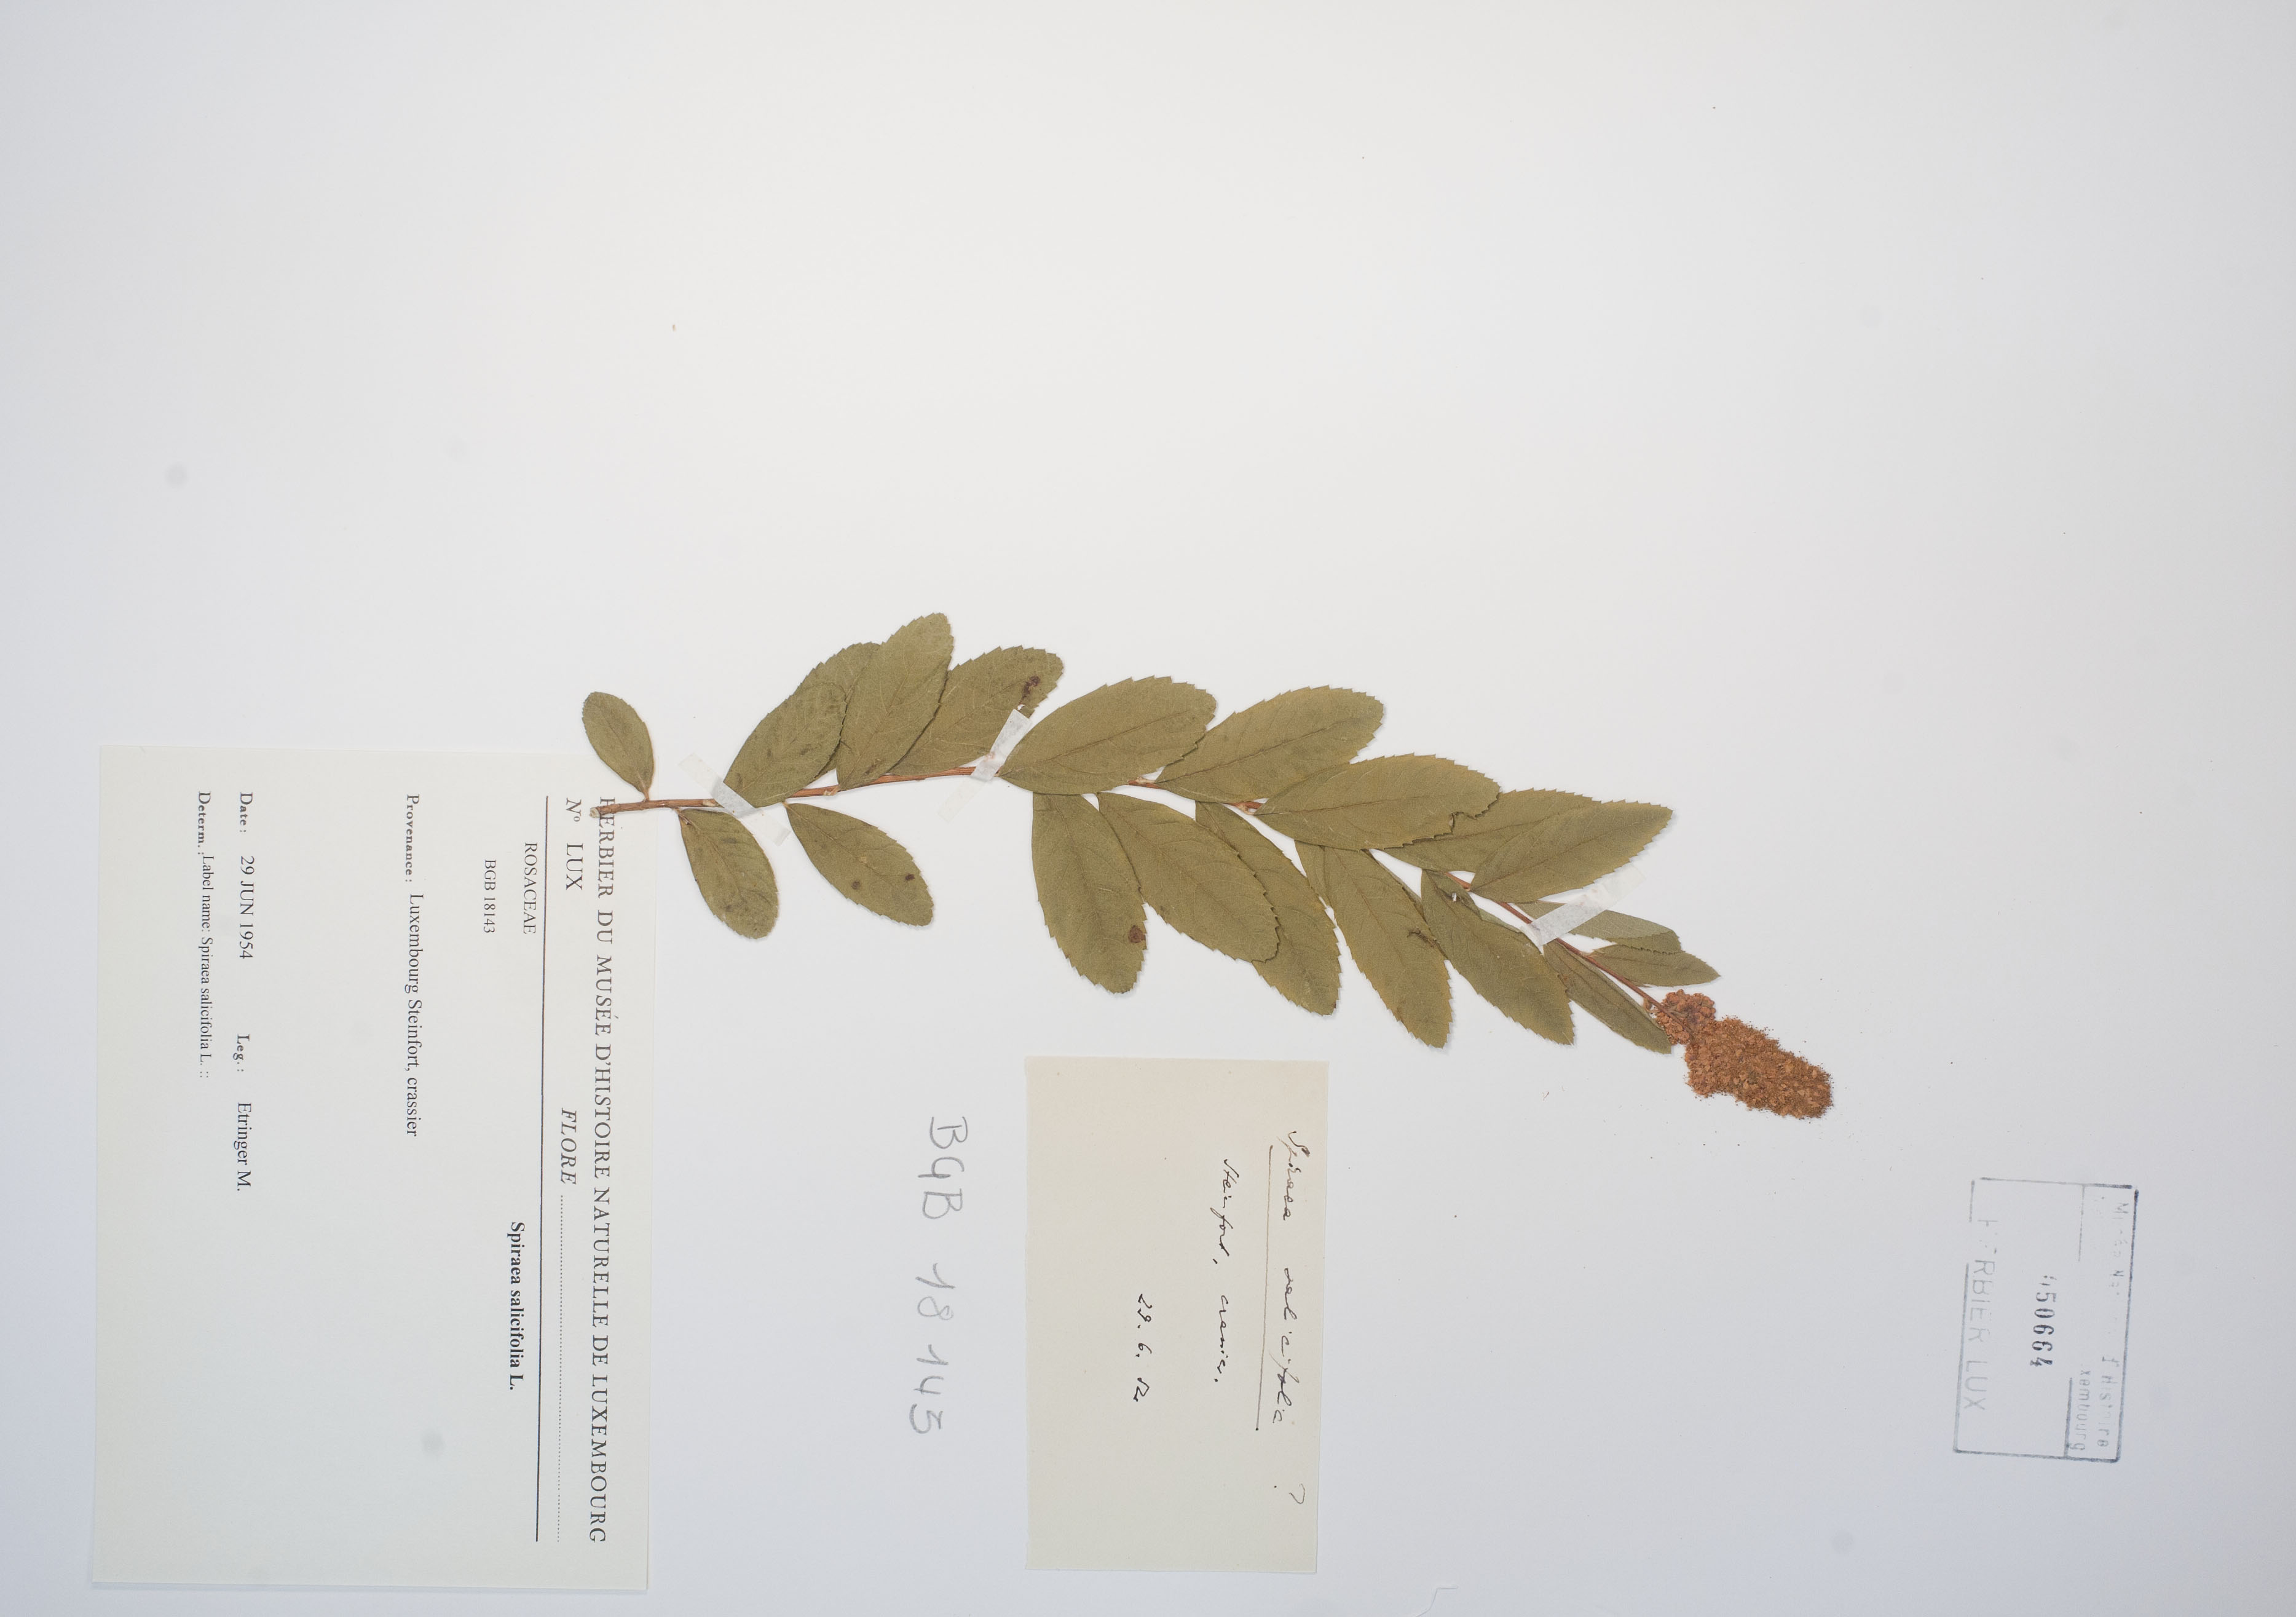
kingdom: Plantae
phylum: Tracheophyta
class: Magnoliopsida
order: Rosales
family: Rosaceae
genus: Spiraea
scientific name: Spiraea douglasii
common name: Steeplebush
